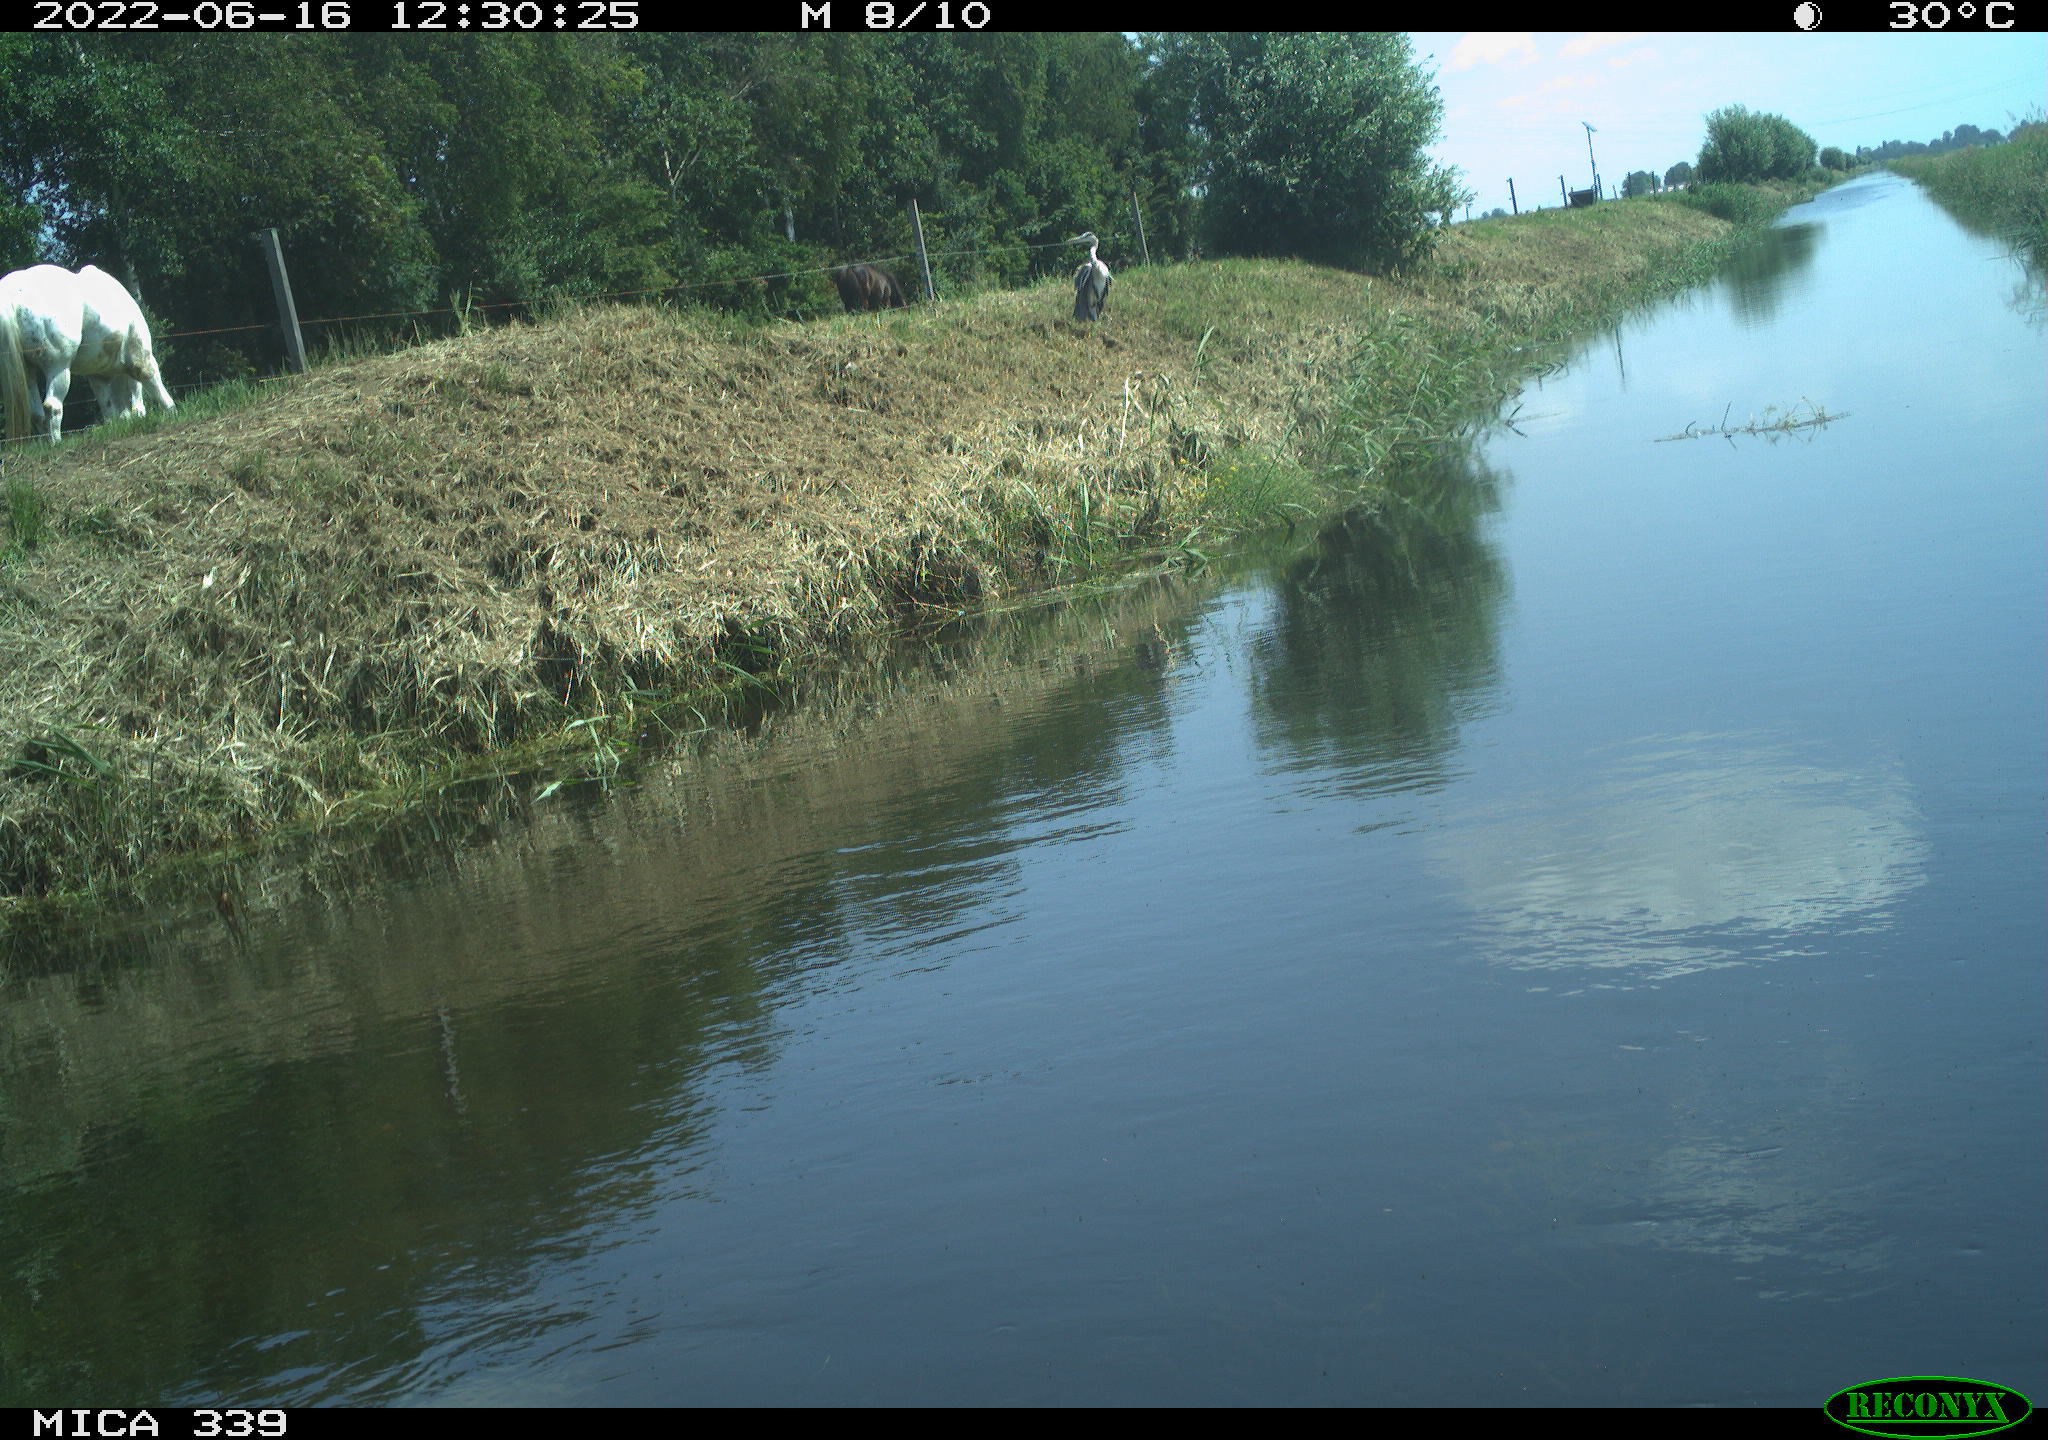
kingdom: Animalia
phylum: Chordata
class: Aves
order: Pelecaniformes
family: Ardeidae
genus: Ardea
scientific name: Ardea cinerea
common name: Grey heron
